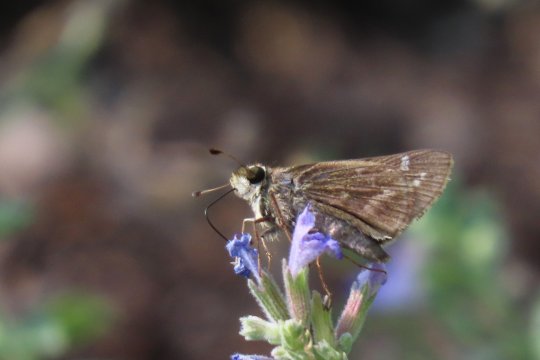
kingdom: Animalia
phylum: Arthropoda
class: Insecta
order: Lepidoptera
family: Hesperiidae
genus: Atalopedes
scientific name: Atalopedes campestris
